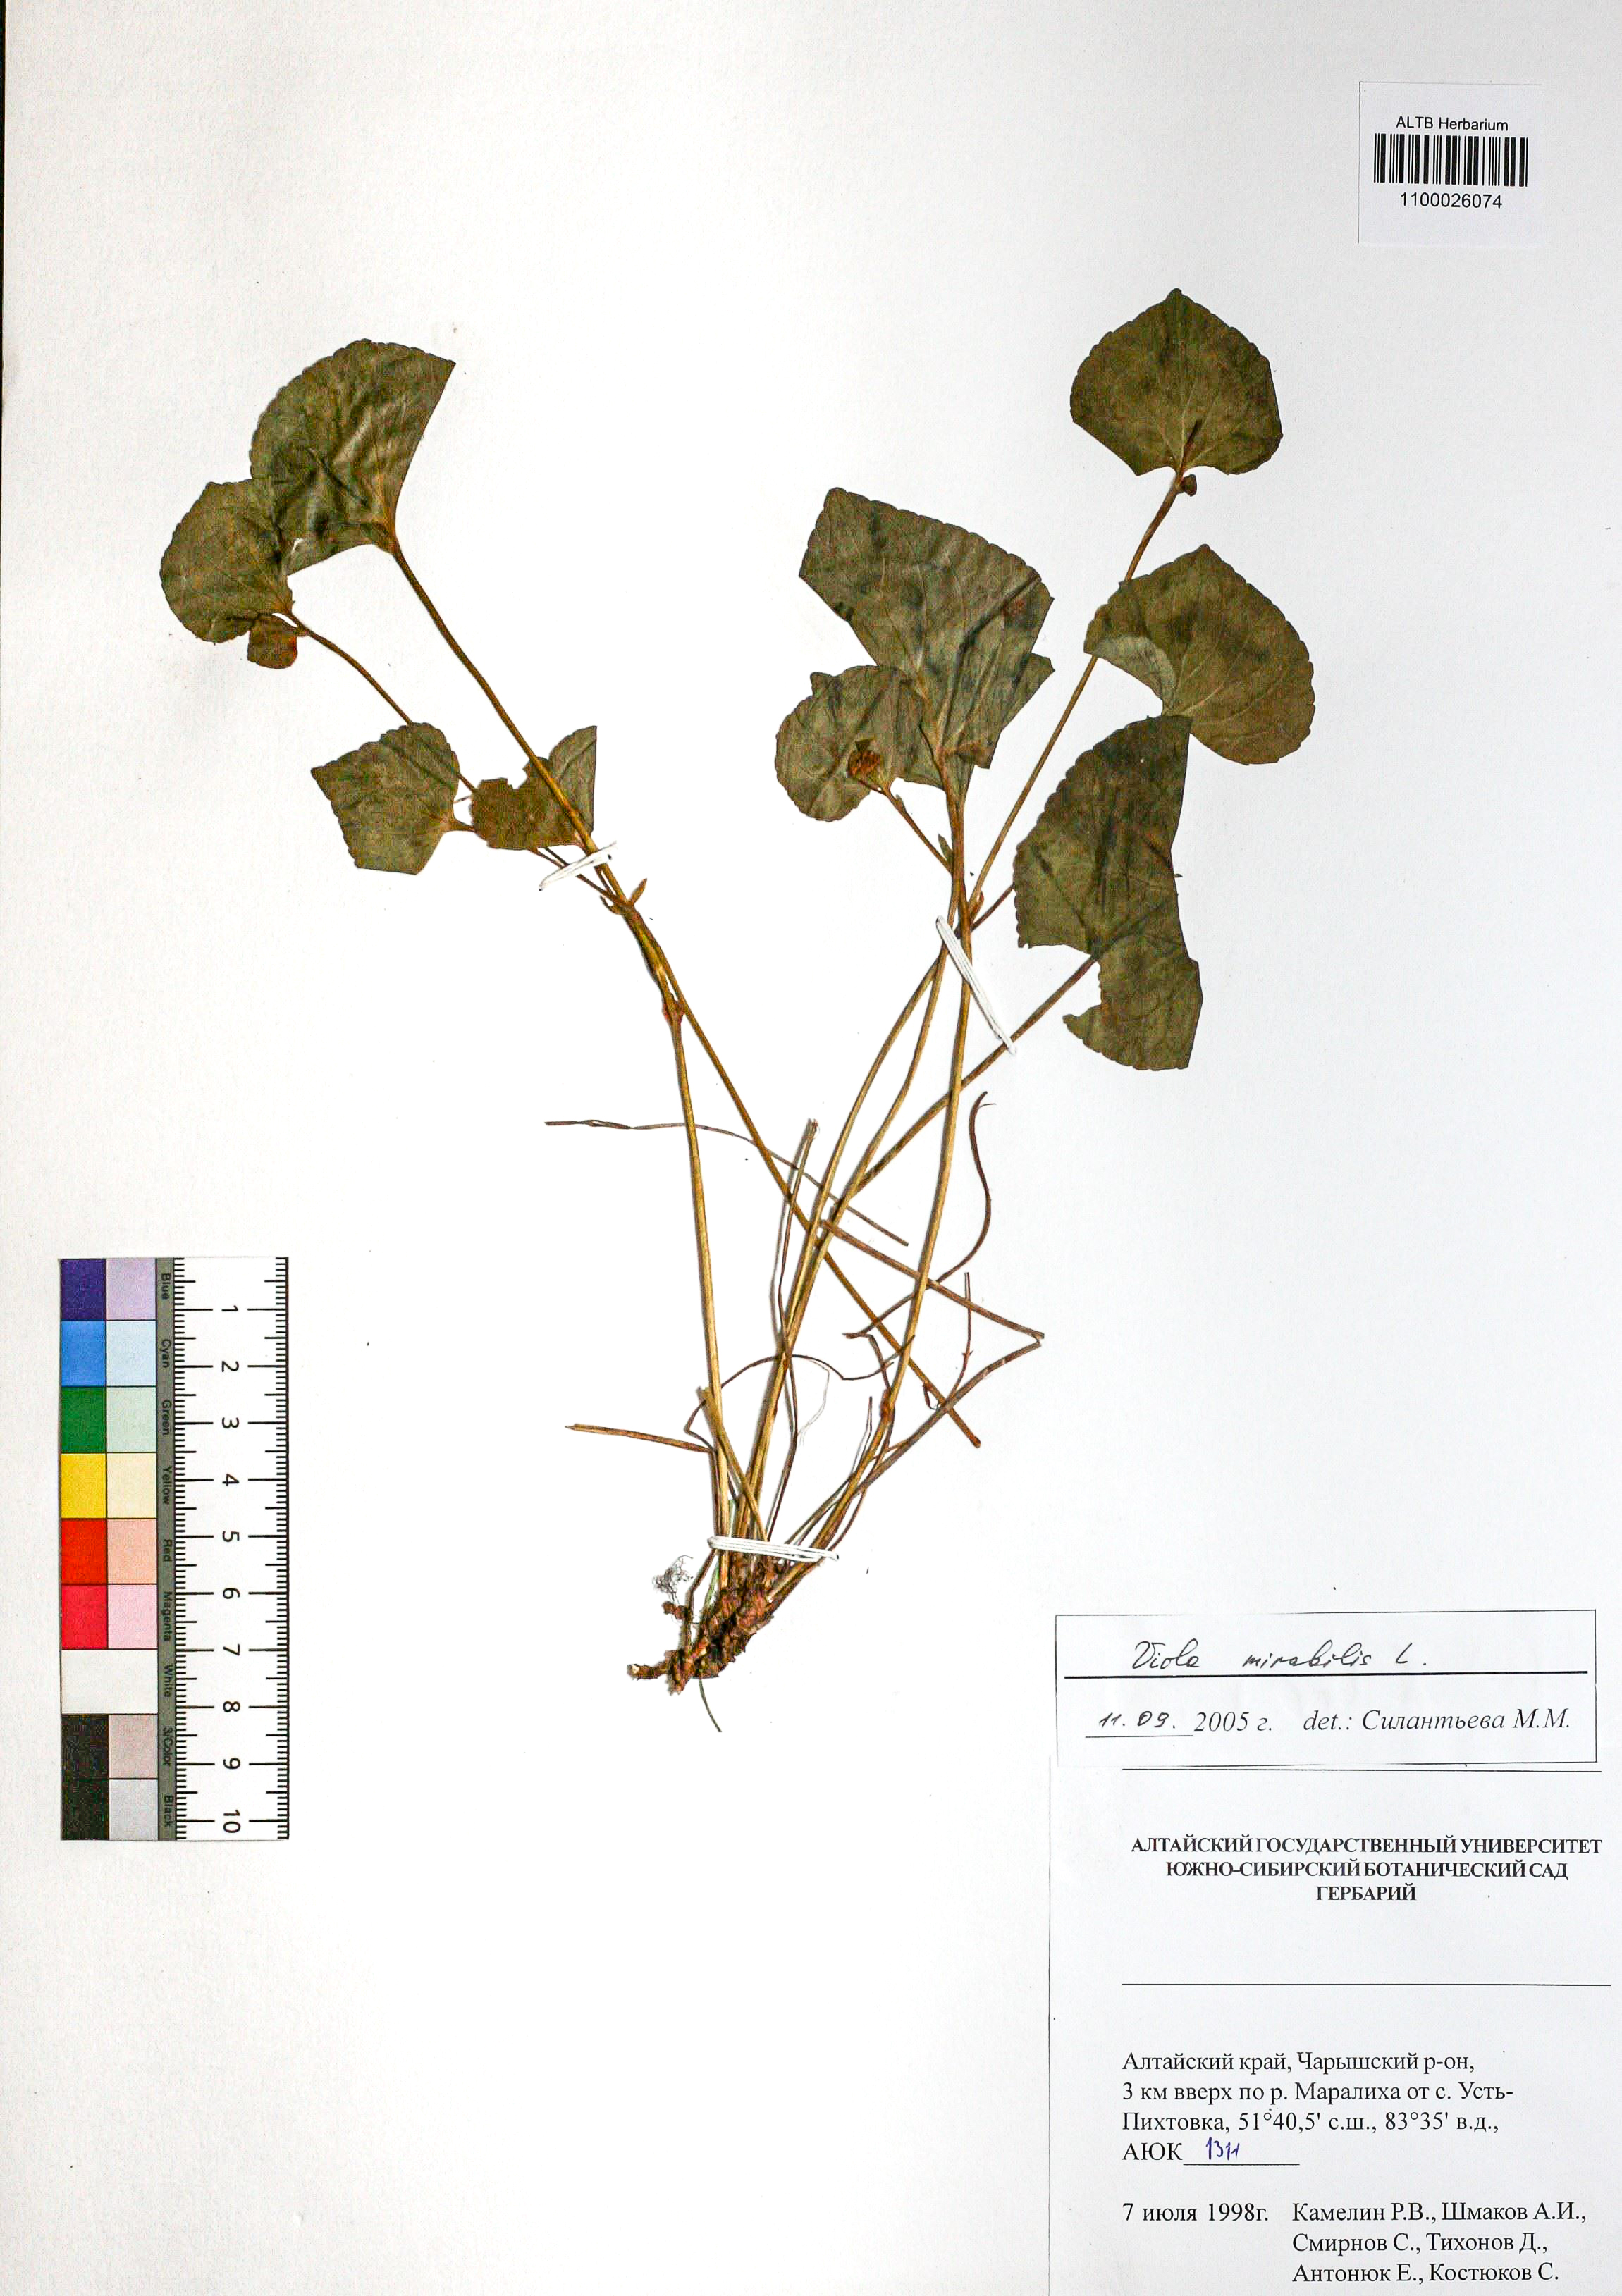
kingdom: Plantae
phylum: Tracheophyta
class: Magnoliopsida
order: Malpighiales
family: Violaceae
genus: Viola
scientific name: Viola mirabilis
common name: Wonder violet
